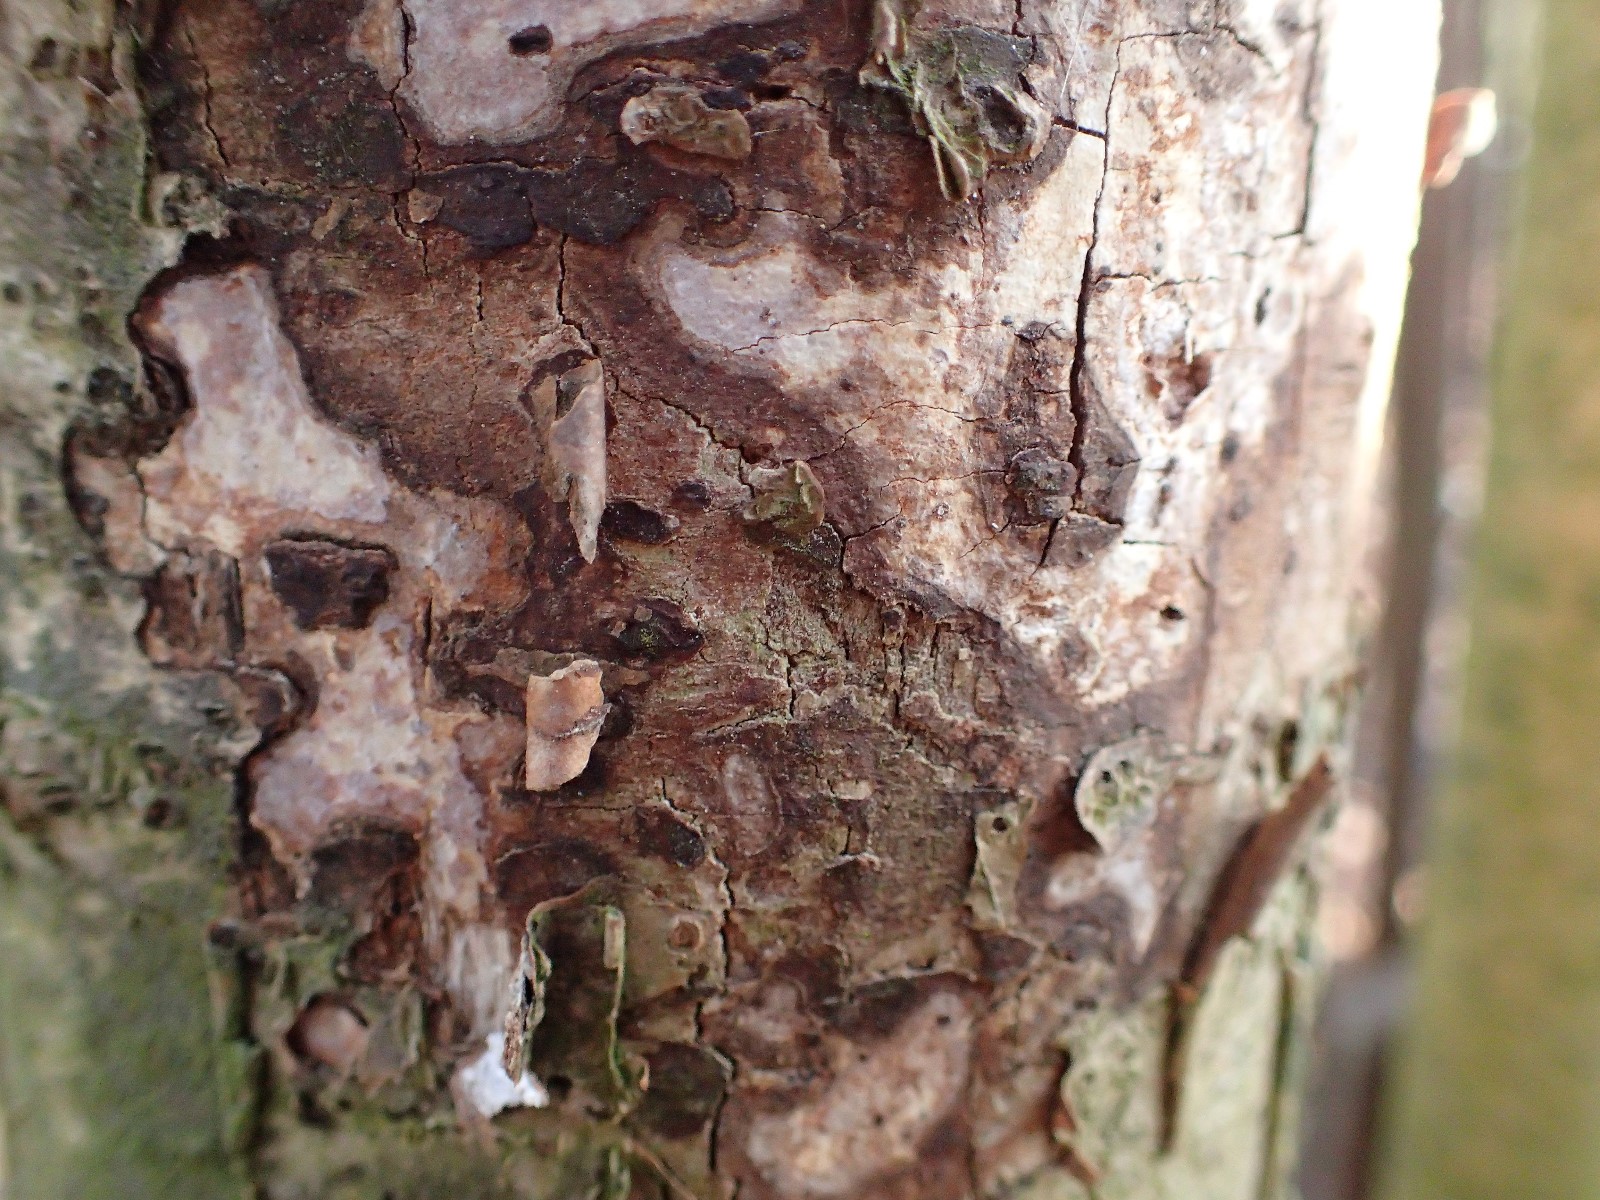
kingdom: Fungi
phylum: Basidiomycota
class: Agaricomycetes
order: Russulales
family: Stereaceae
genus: Stereum
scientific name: Stereum rugosum
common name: rynket lædersvamp
